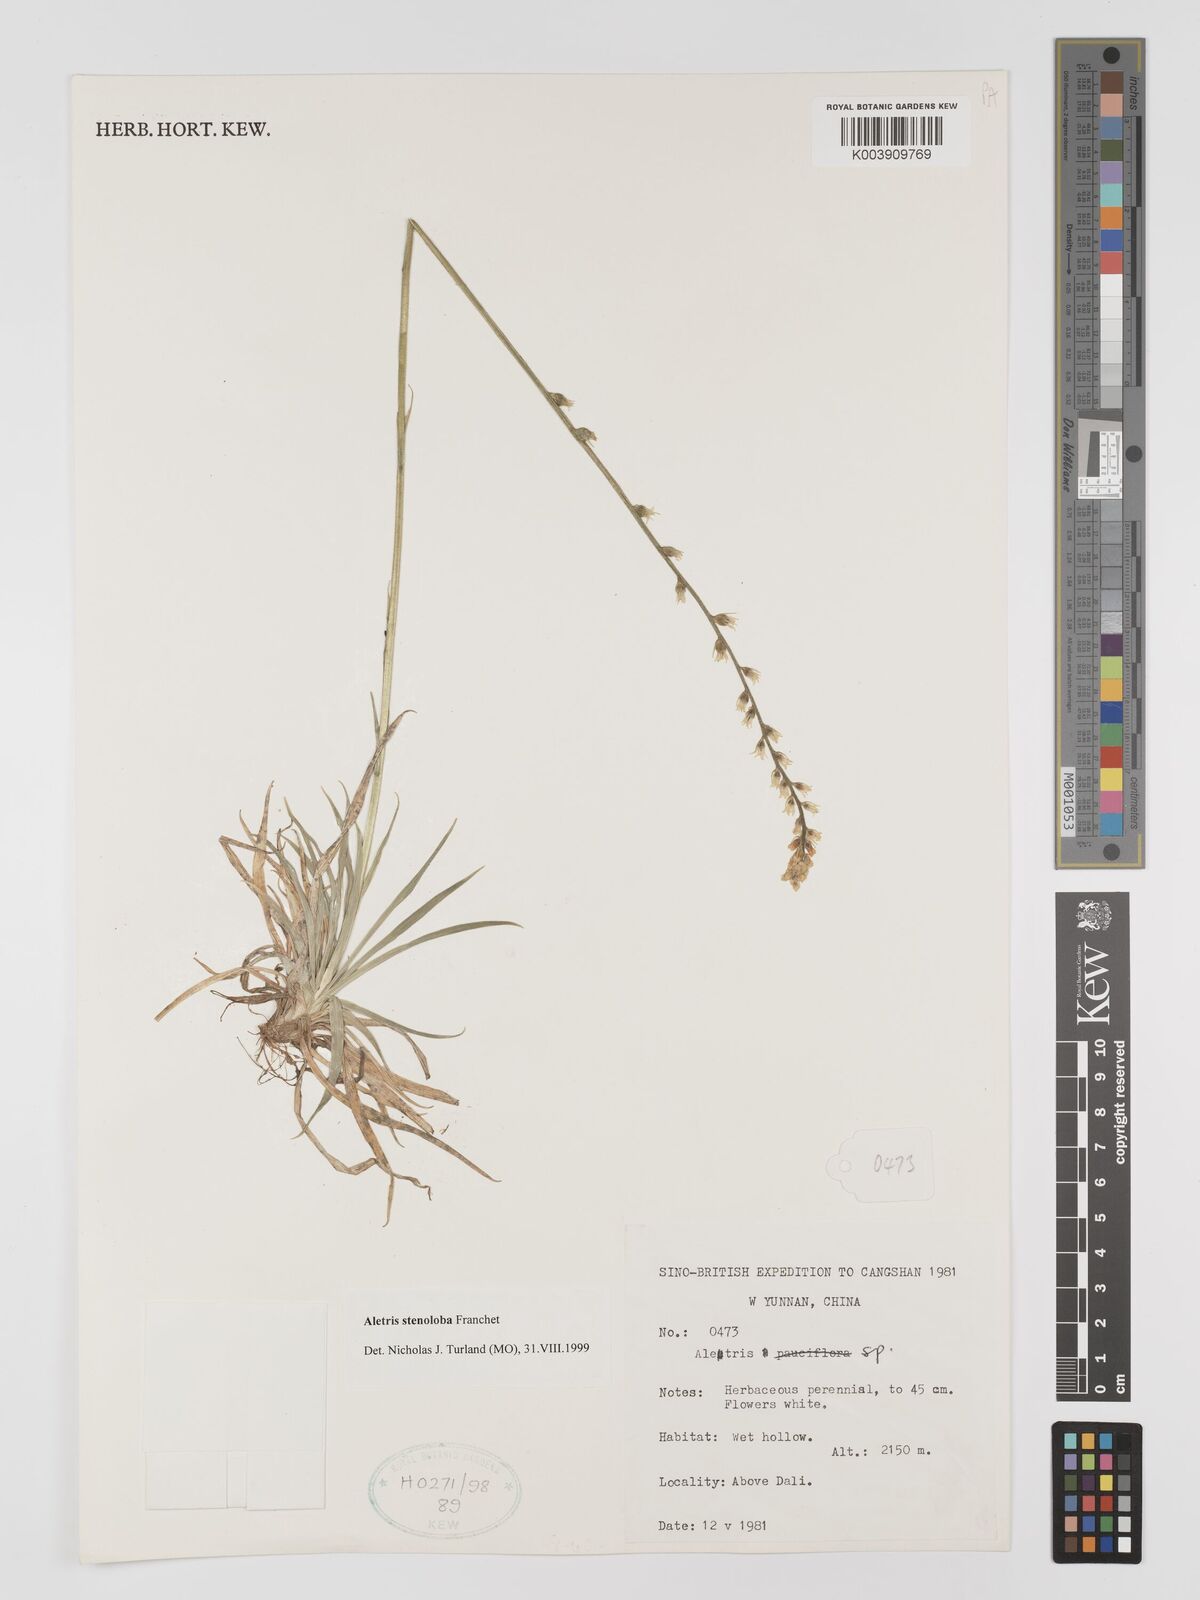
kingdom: Plantae
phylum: Tracheophyta
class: Liliopsida
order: Dioscoreales
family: Nartheciaceae
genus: Aletris
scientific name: Aletris stenoloba
